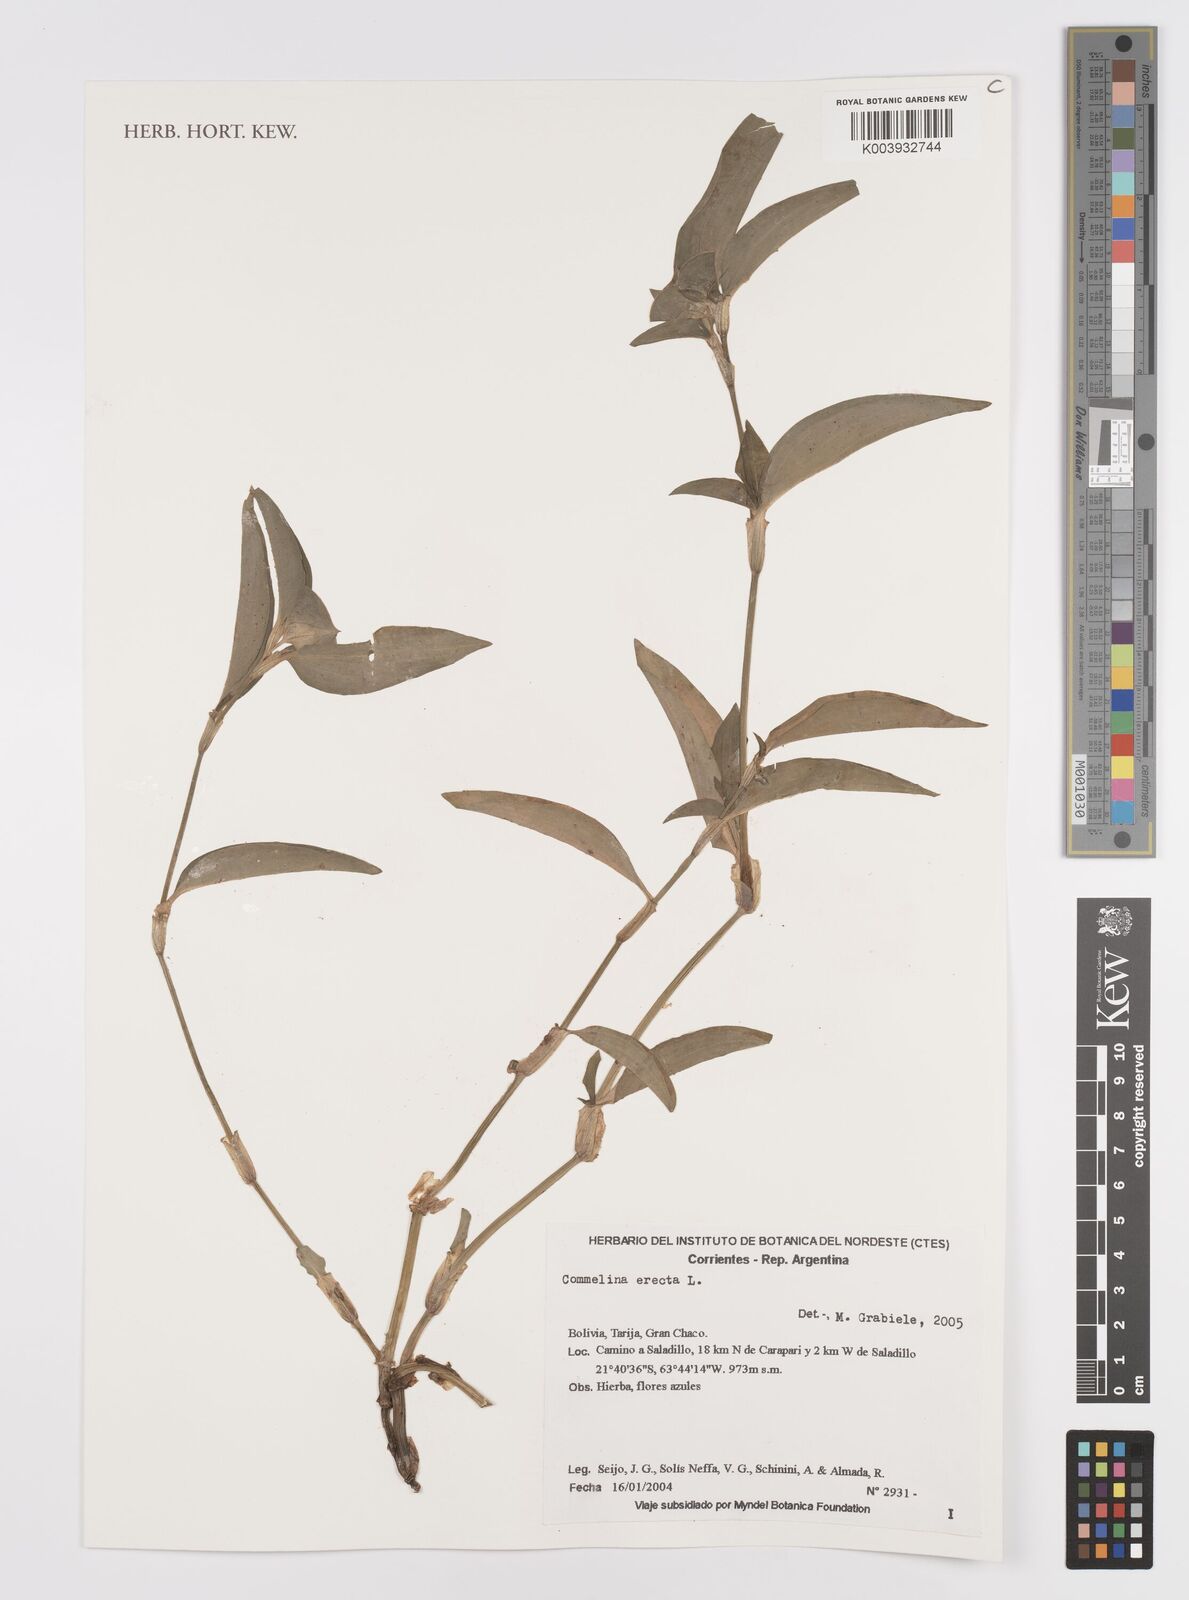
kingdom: Plantae
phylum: Tracheophyta
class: Liliopsida
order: Commelinales
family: Commelinaceae
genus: Commelina
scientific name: Commelina erecta
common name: Blousel blommetjie
